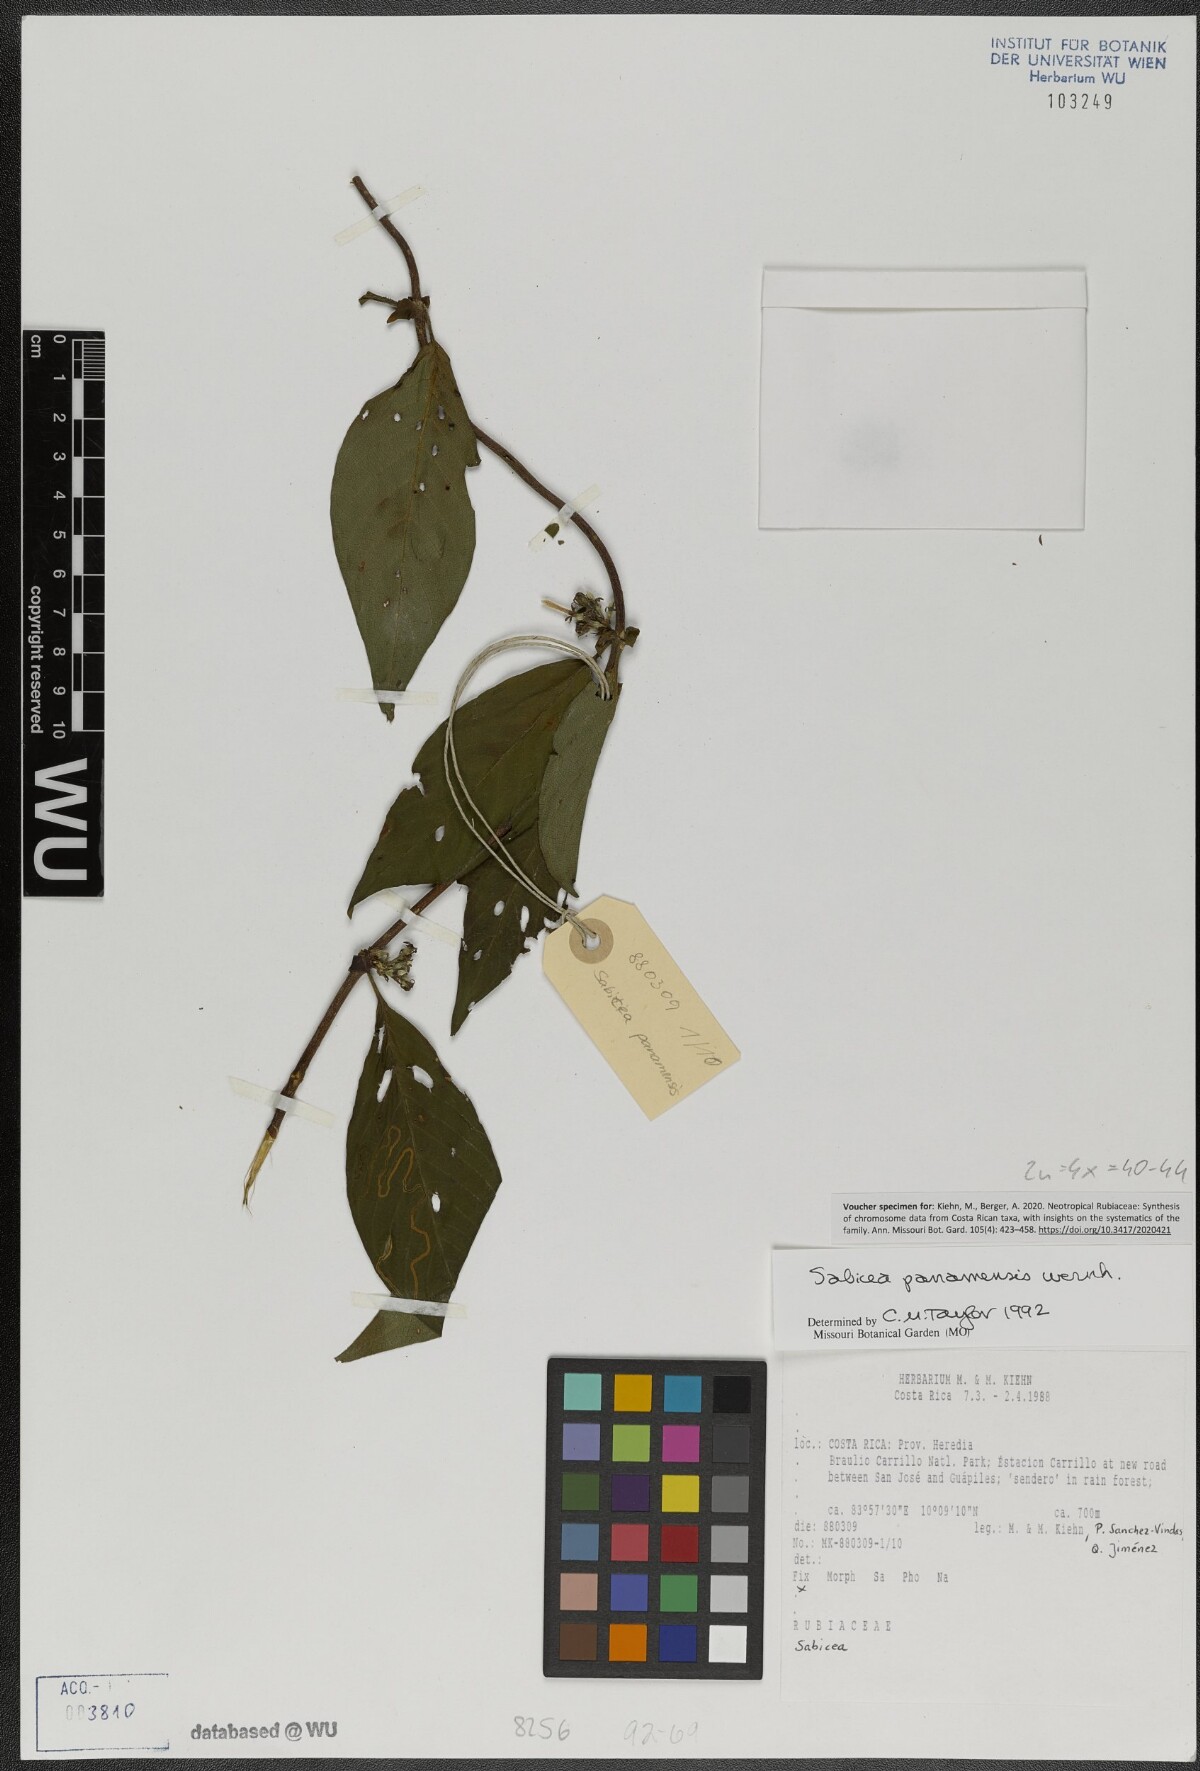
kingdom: Plantae
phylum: Tracheophyta
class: Magnoliopsida
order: Gentianales
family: Rubiaceae
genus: Sabicea
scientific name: Sabicea panamensis
